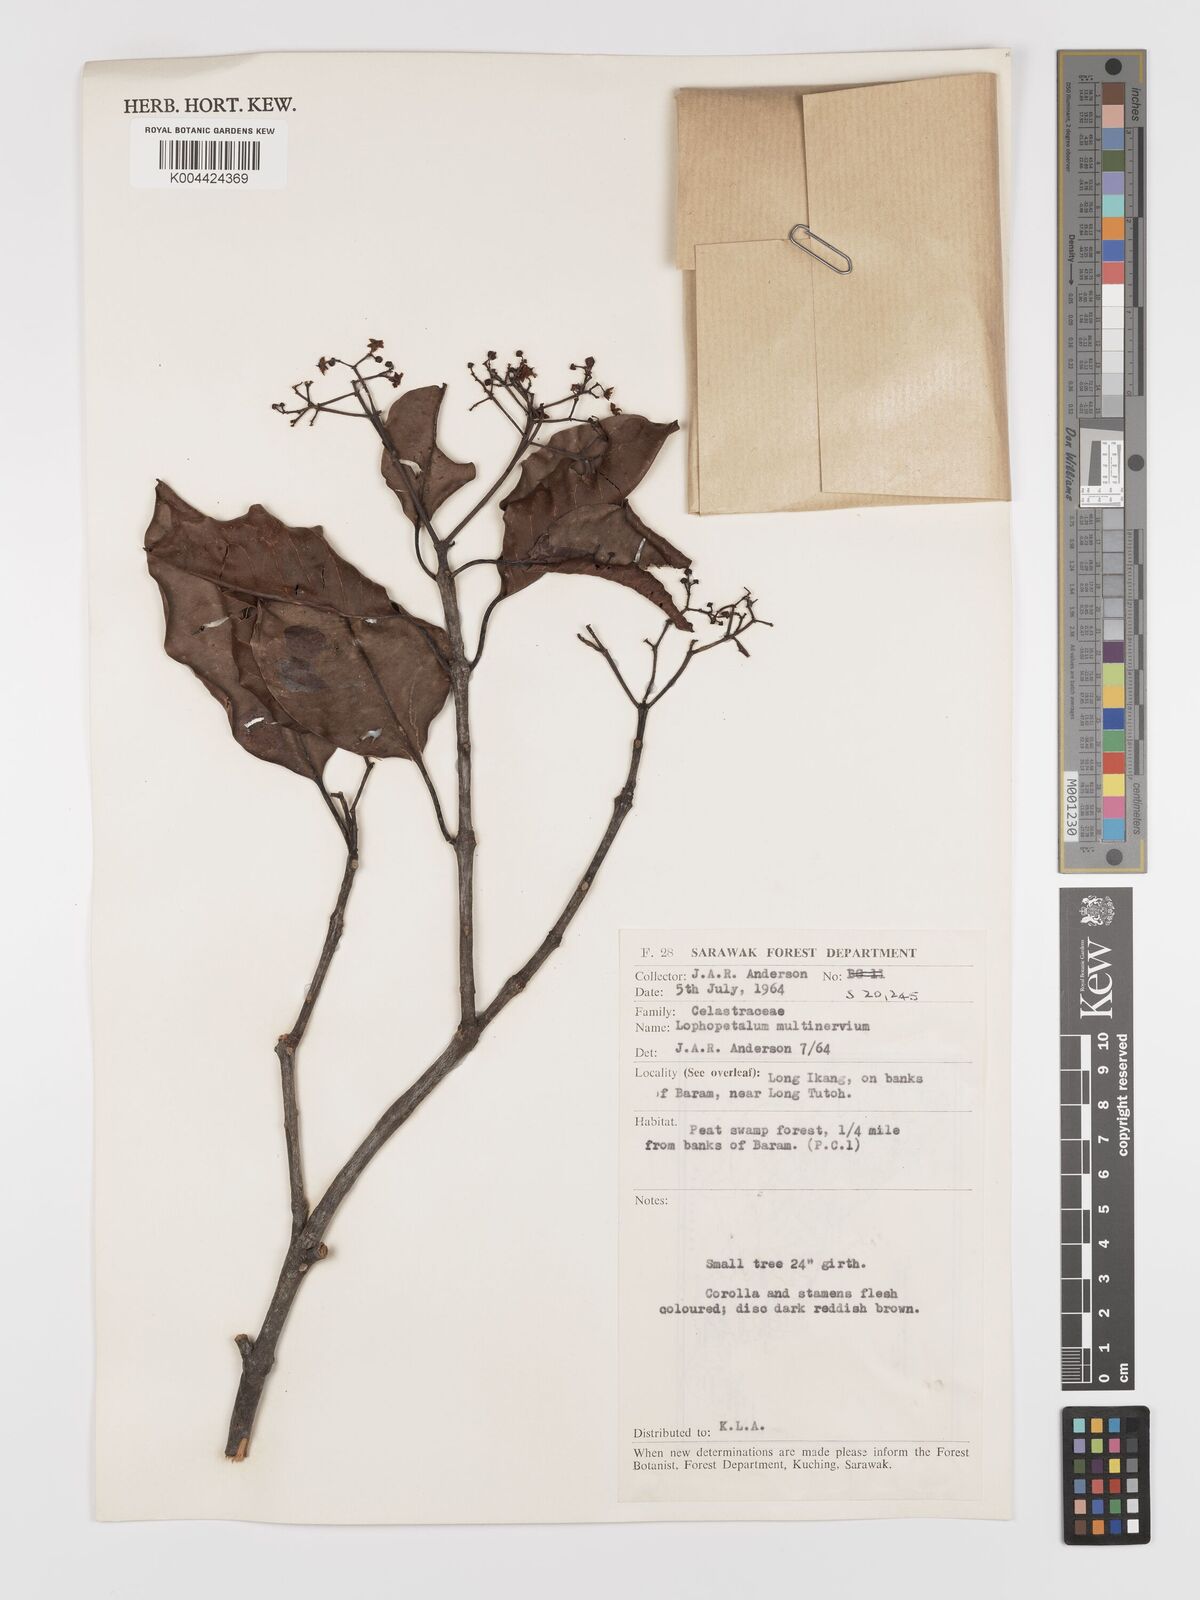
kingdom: Plantae
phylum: Tracheophyta
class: Magnoliopsida
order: Celastrales
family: Celastraceae
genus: Lophopetalum
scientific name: Lophopetalum multinervium
